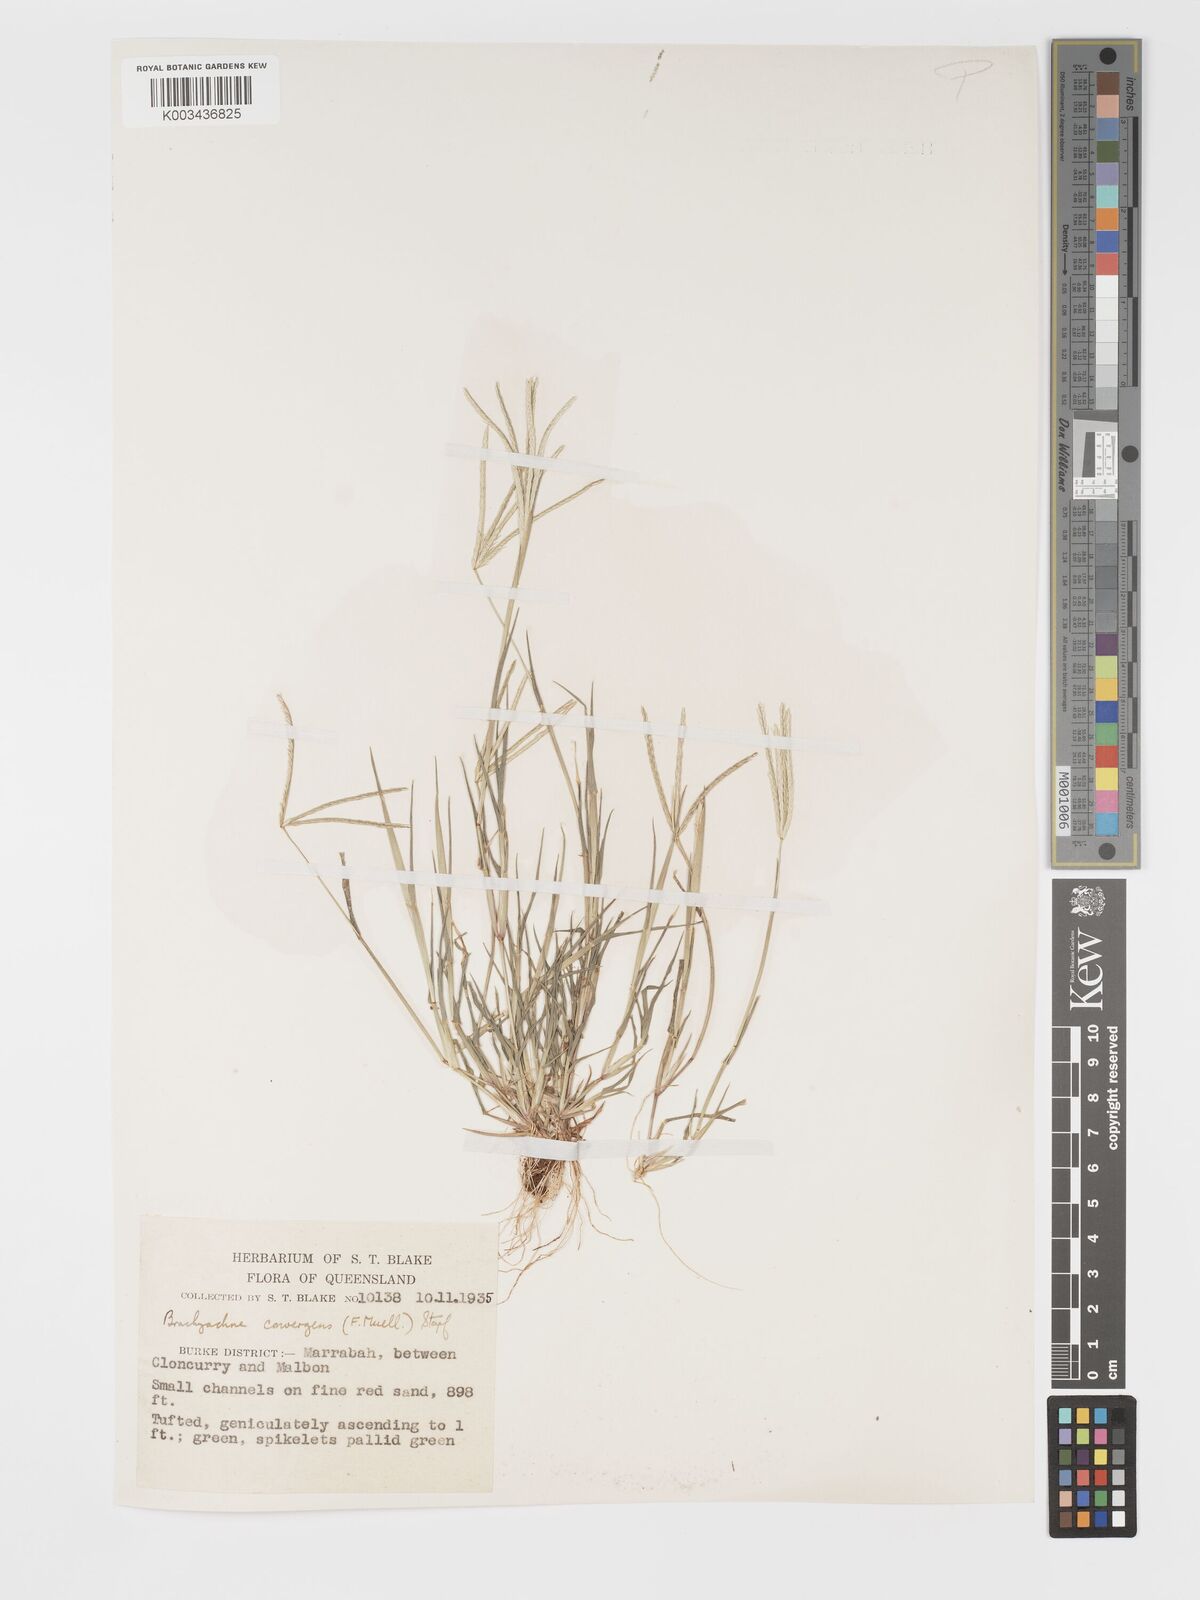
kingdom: Plantae
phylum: Tracheophyta
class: Liliopsida
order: Poales
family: Poaceae
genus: Cynodon
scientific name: Cynodon convergens
